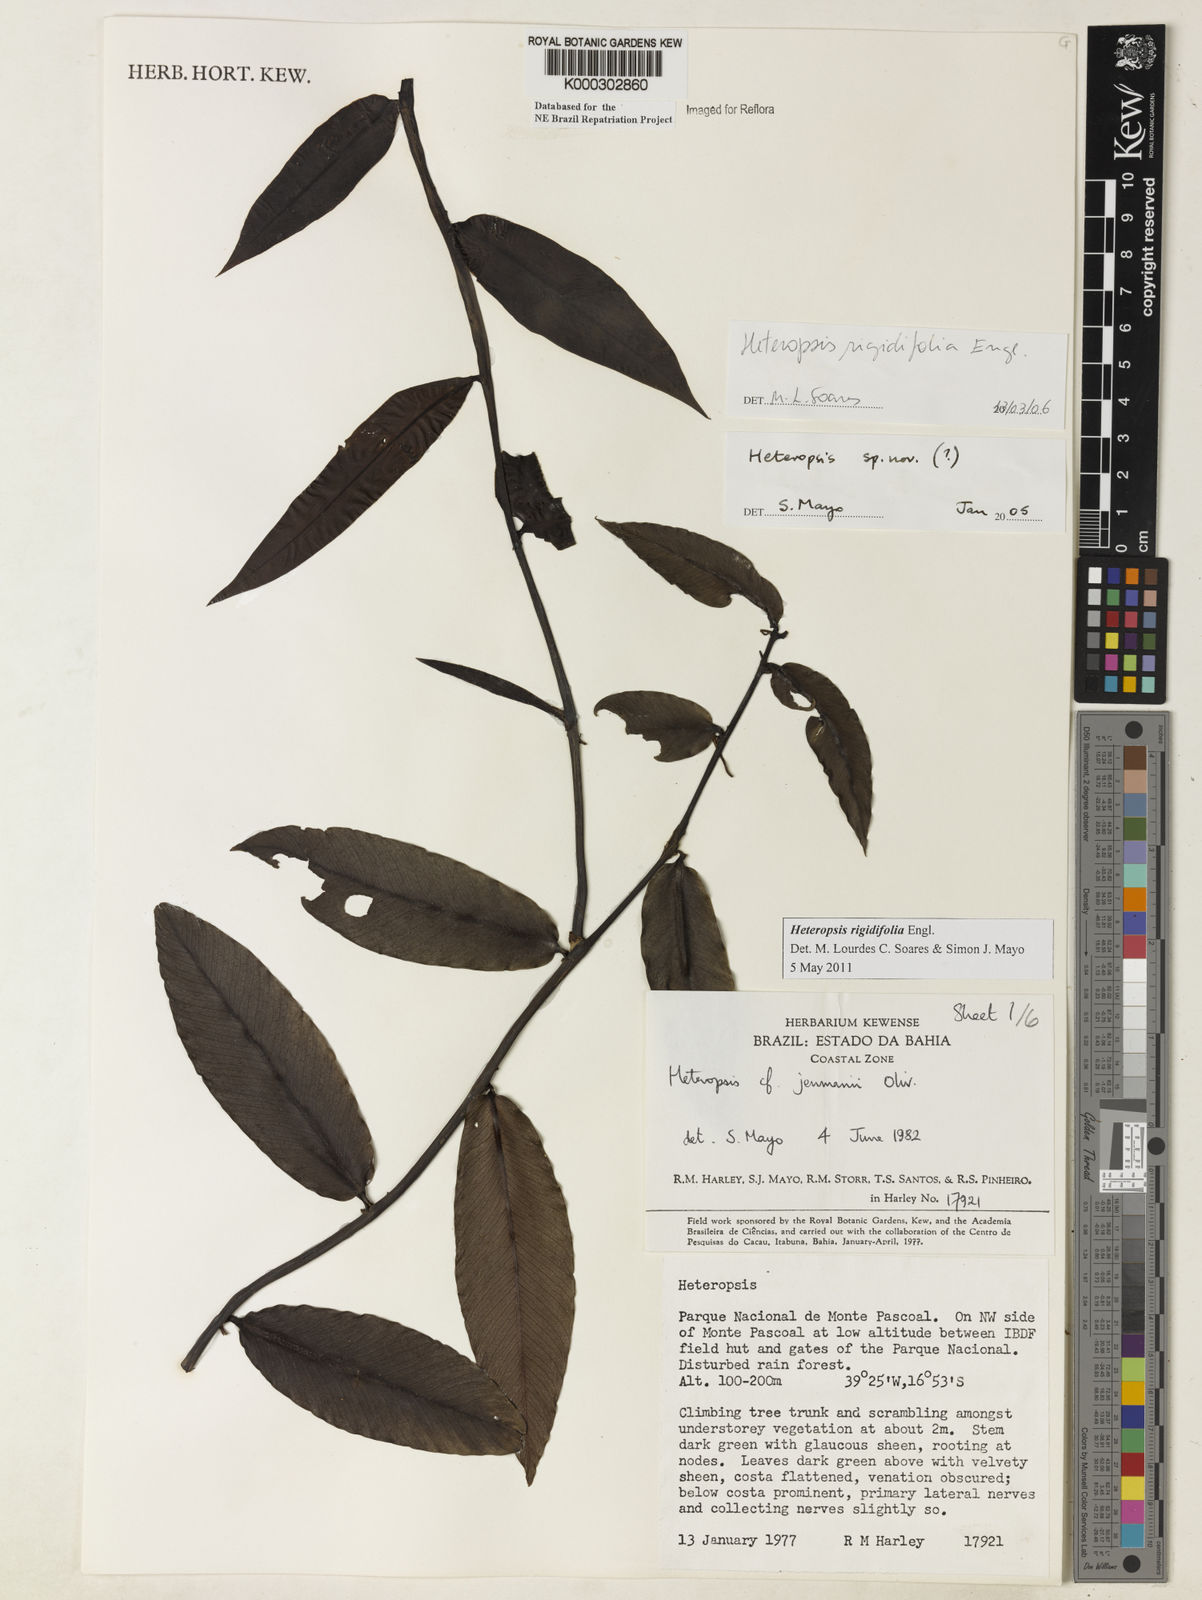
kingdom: Plantae
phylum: Tracheophyta
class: Liliopsida
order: Alismatales
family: Araceae
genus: Heteropsis
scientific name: Heteropsis
